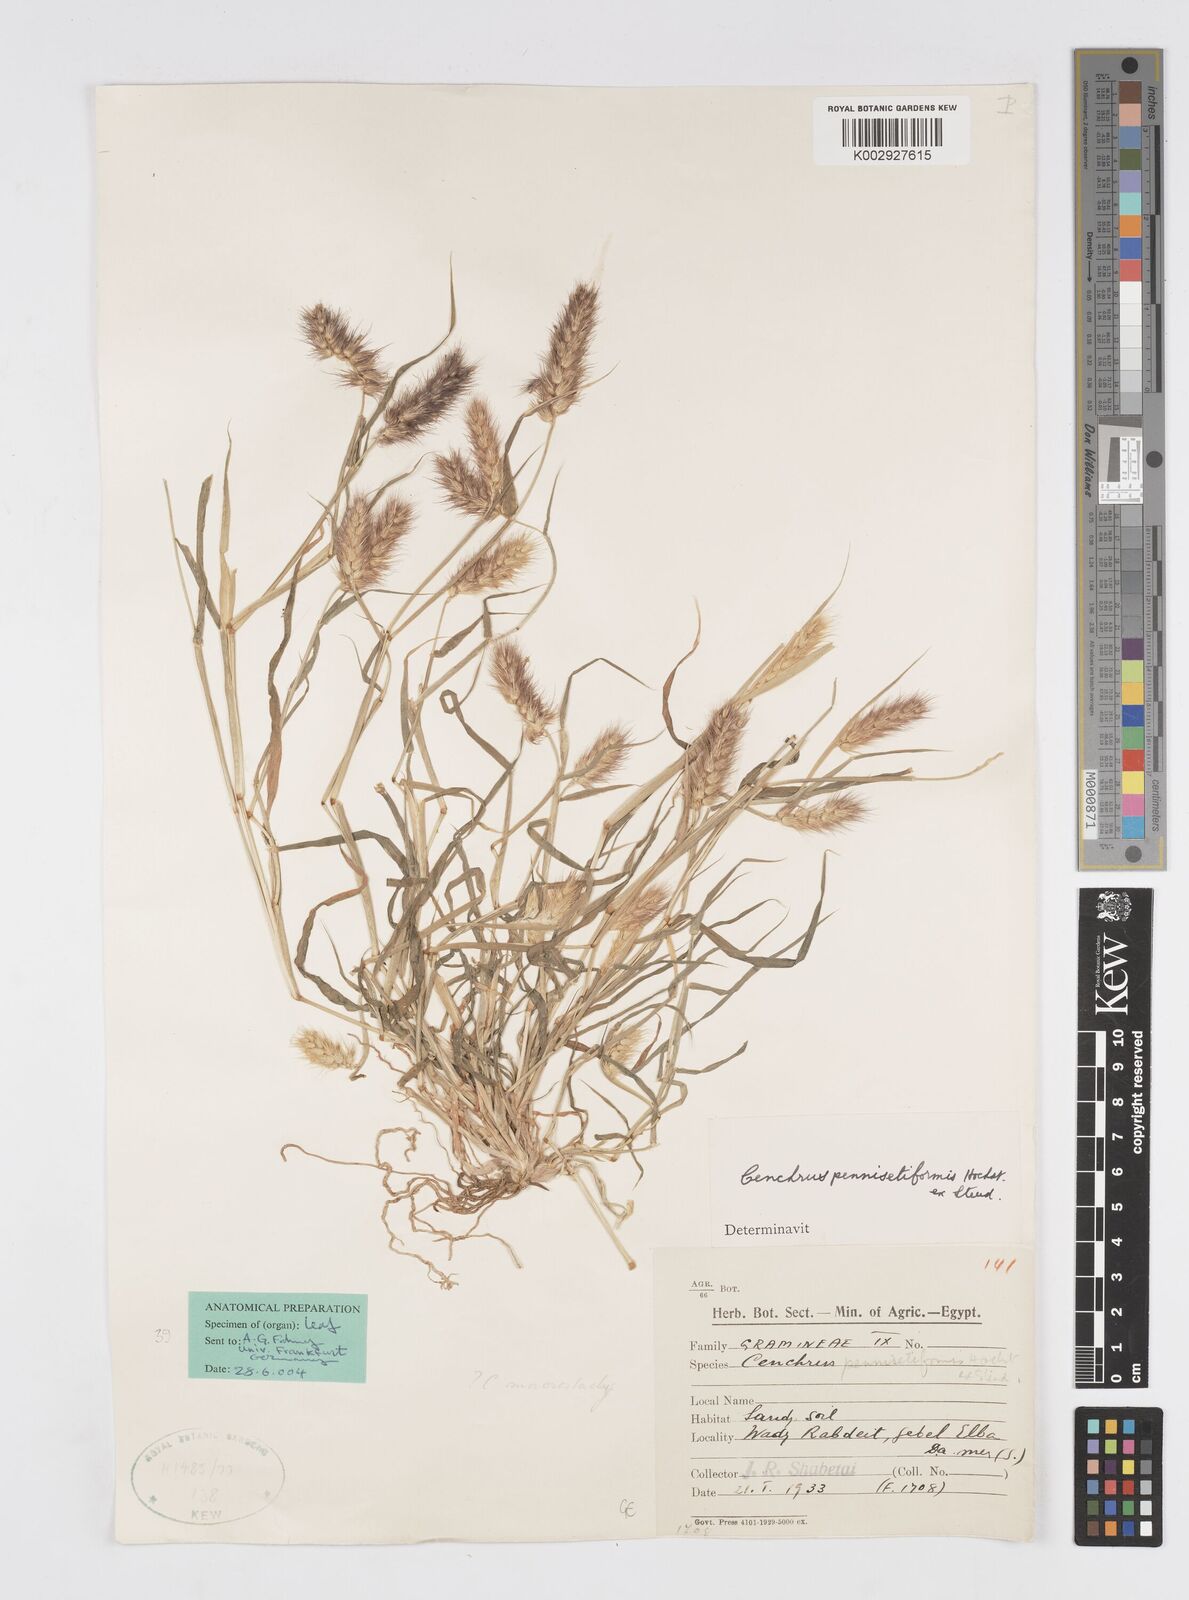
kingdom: Plantae
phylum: Tracheophyta
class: Liliopsida
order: Poales
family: Poaceae
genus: Cenchrus
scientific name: Cenchrus pennisetiformis
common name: Cloncurry
